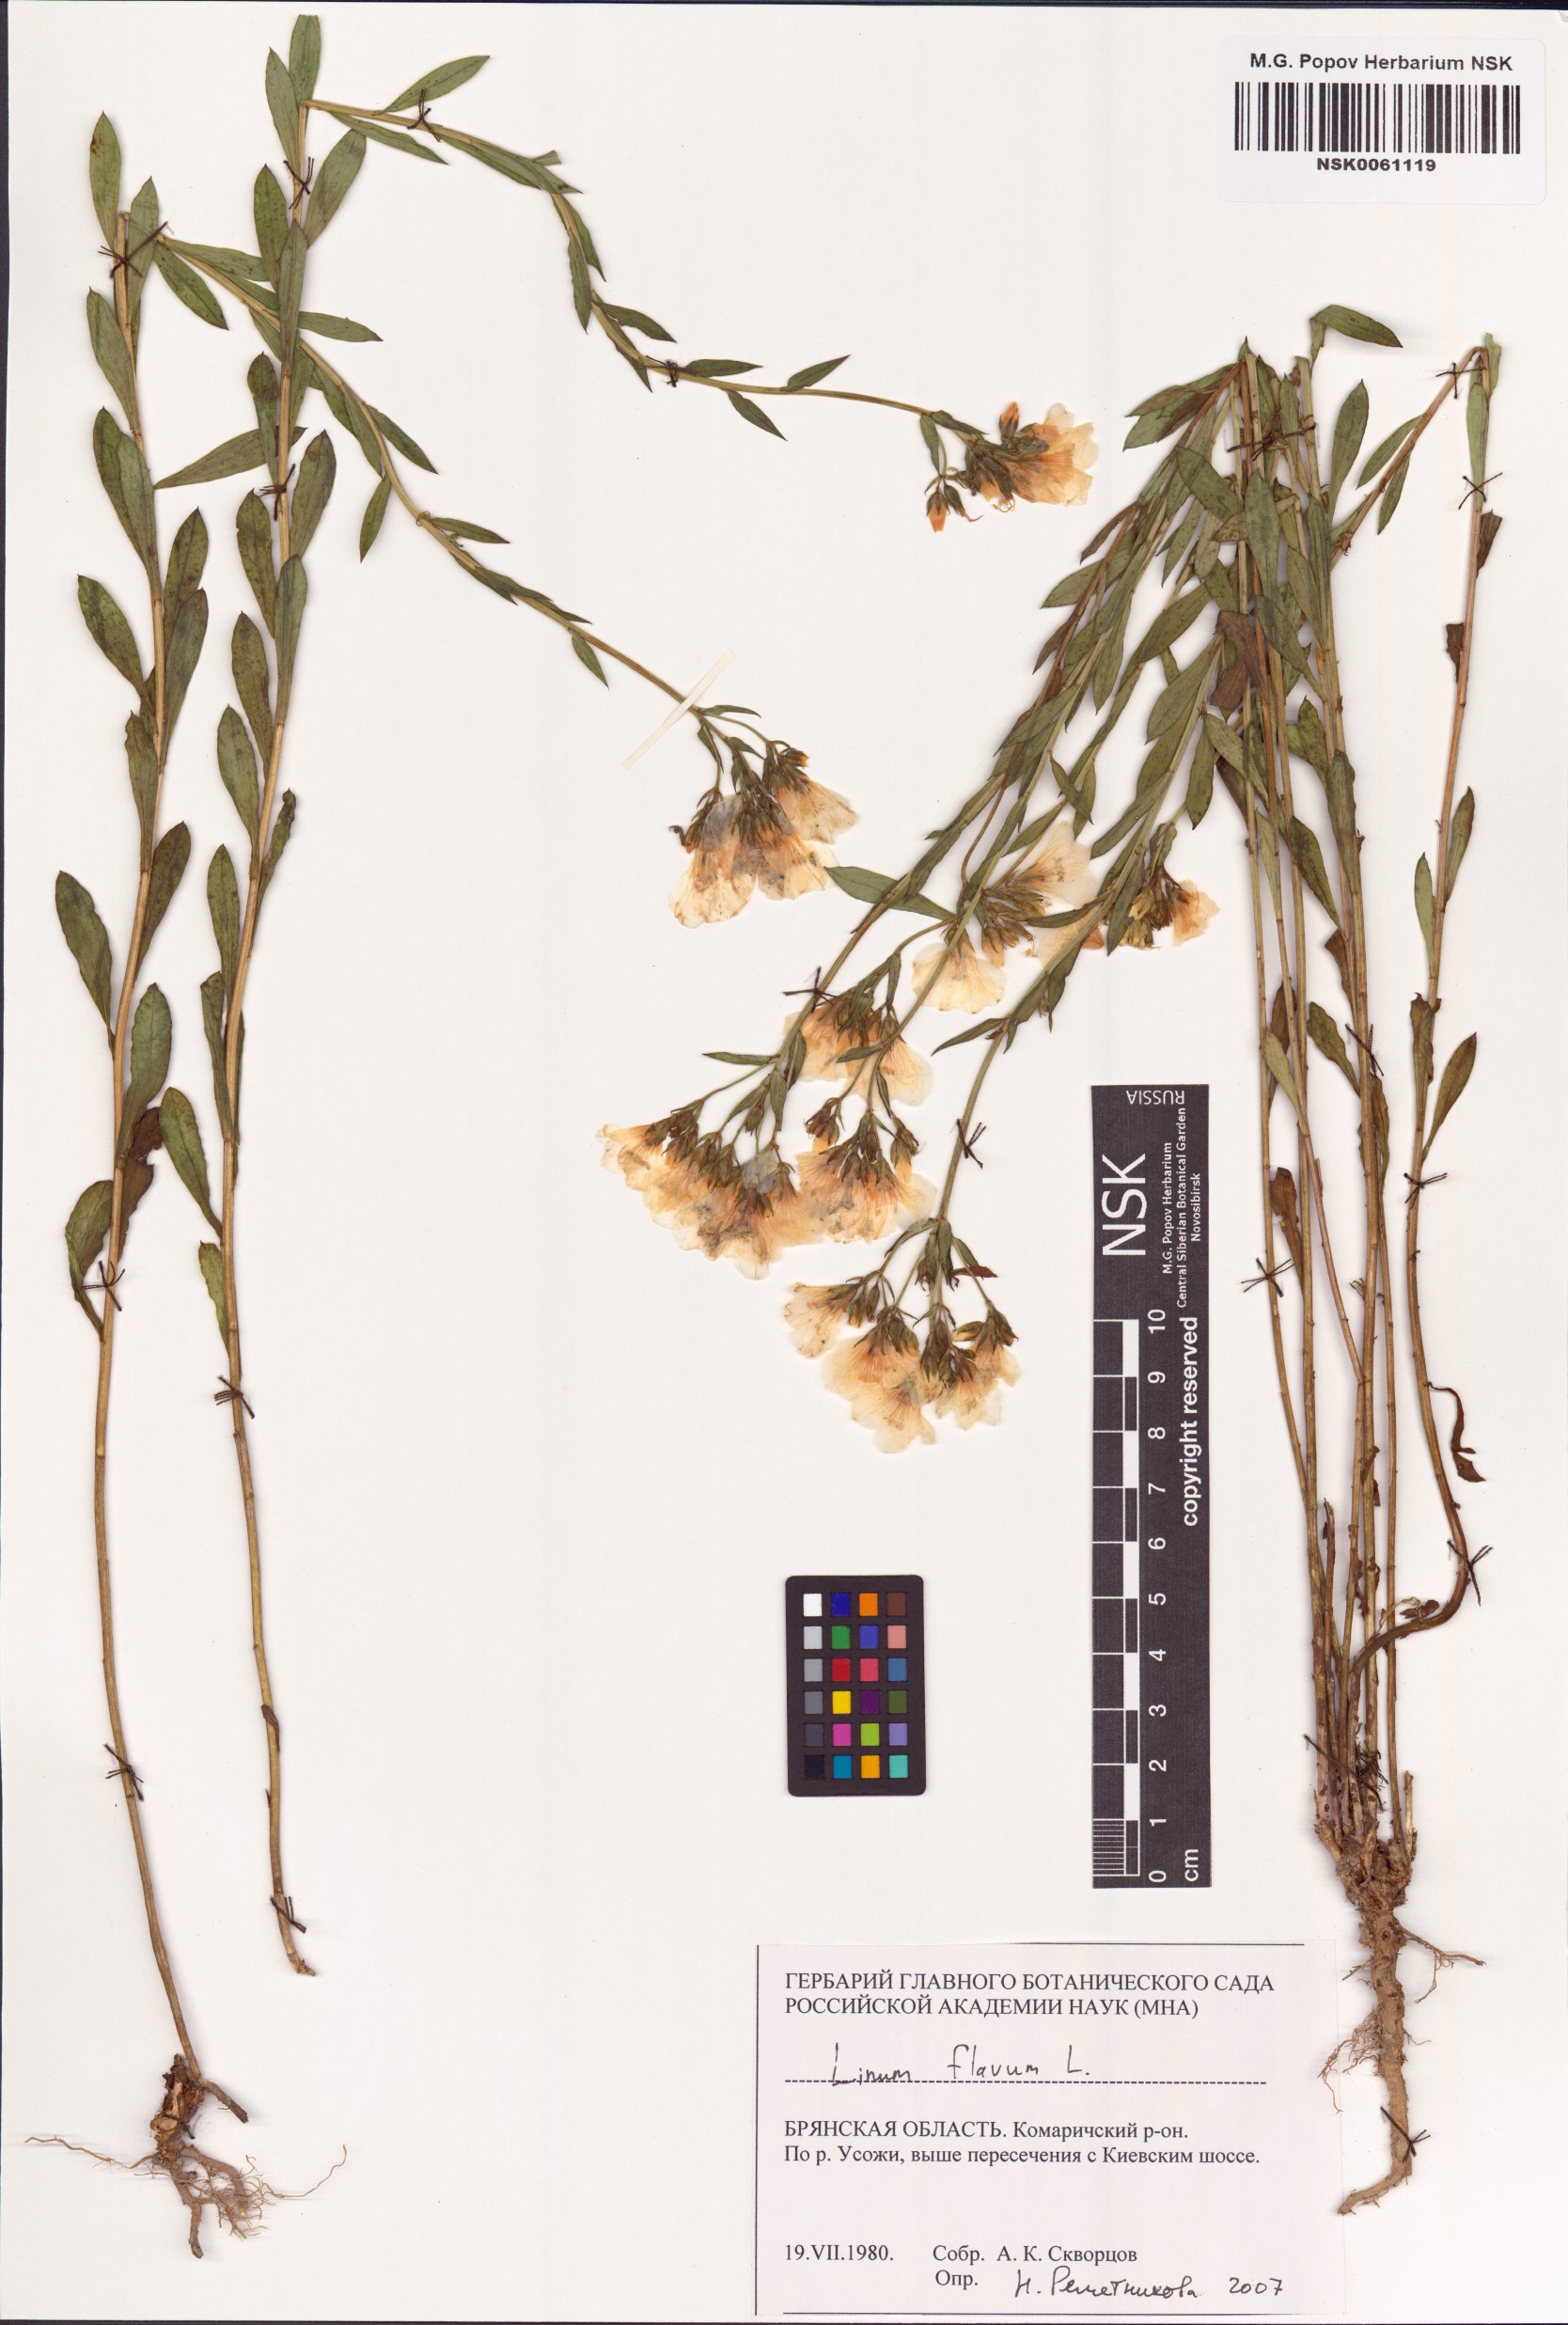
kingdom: Plantae
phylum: Tracheophyta
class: Magnoliopsida
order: Malpighiales
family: Linaceae
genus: Linum
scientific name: Linum flavum
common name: Yellow flax
